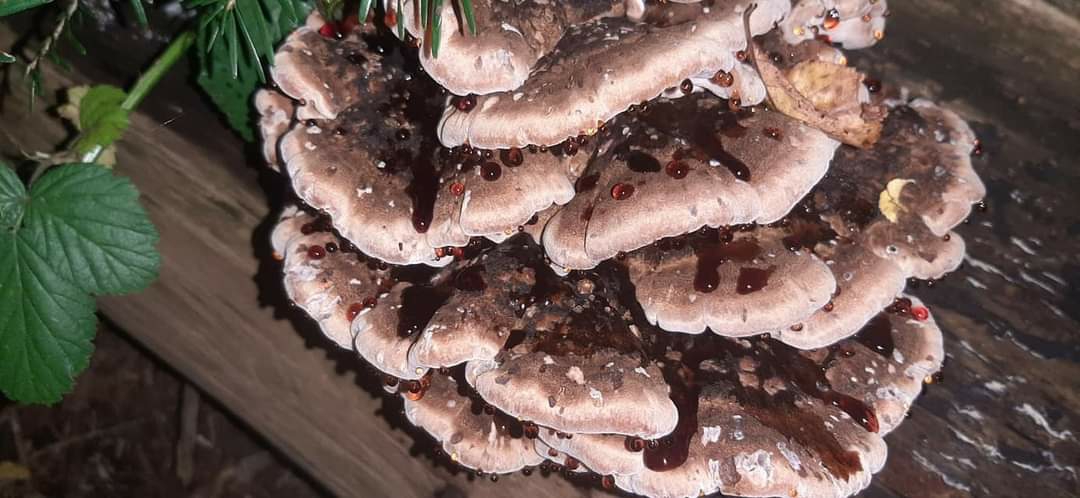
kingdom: Fungi
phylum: Basidiomycota
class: Agaricomycetes
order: Polyporales
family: Ischnodermataceae
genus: Ischnoderma
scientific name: Ischnoderma benzoinum
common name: gran-tjæreporesvamp
